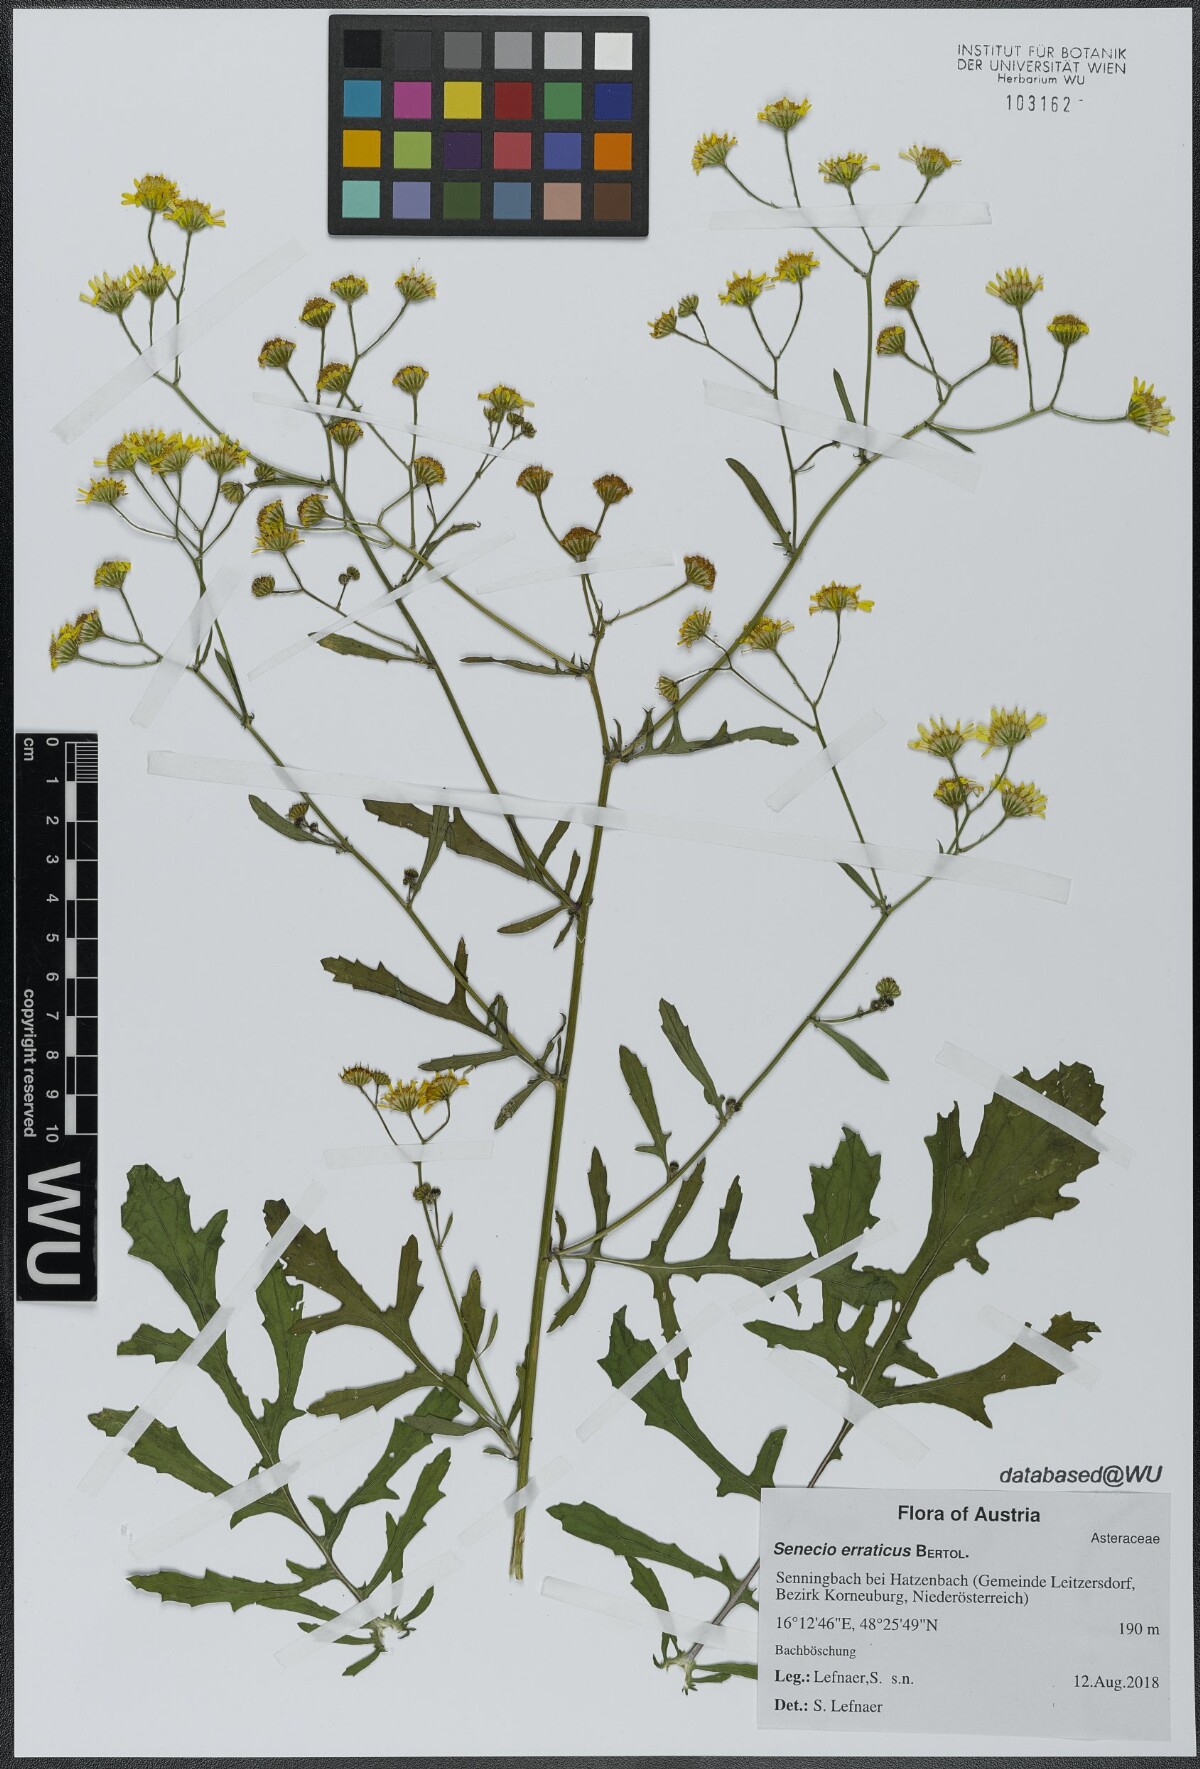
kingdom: Plantae
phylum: Tracheophyta
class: Magnoliopsida
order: Asterales
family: Asteraceae
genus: Jacobaea
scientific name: Jacobaea erratica
